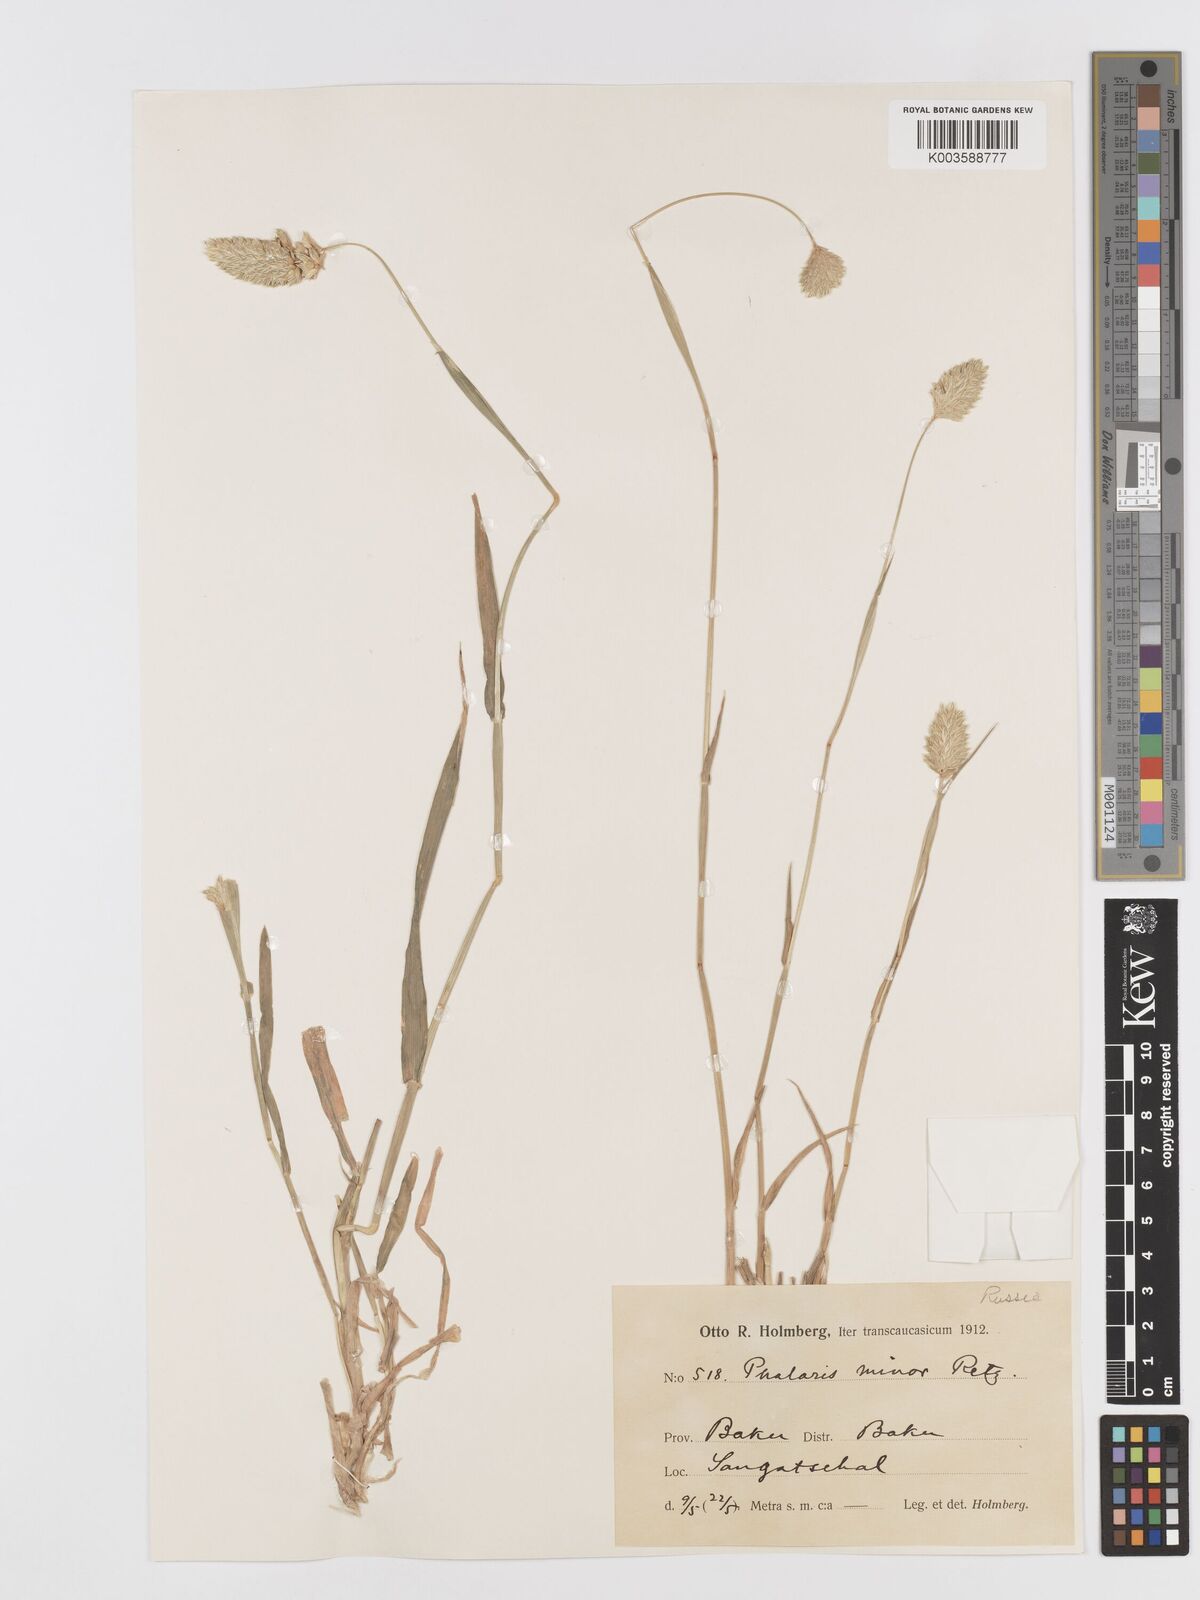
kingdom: Plantae
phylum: Tracheophyta
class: Liliopsida
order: Poales
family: Poaceae
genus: Phalaris
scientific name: Phalaris minor
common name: Littleseed canarygrass
